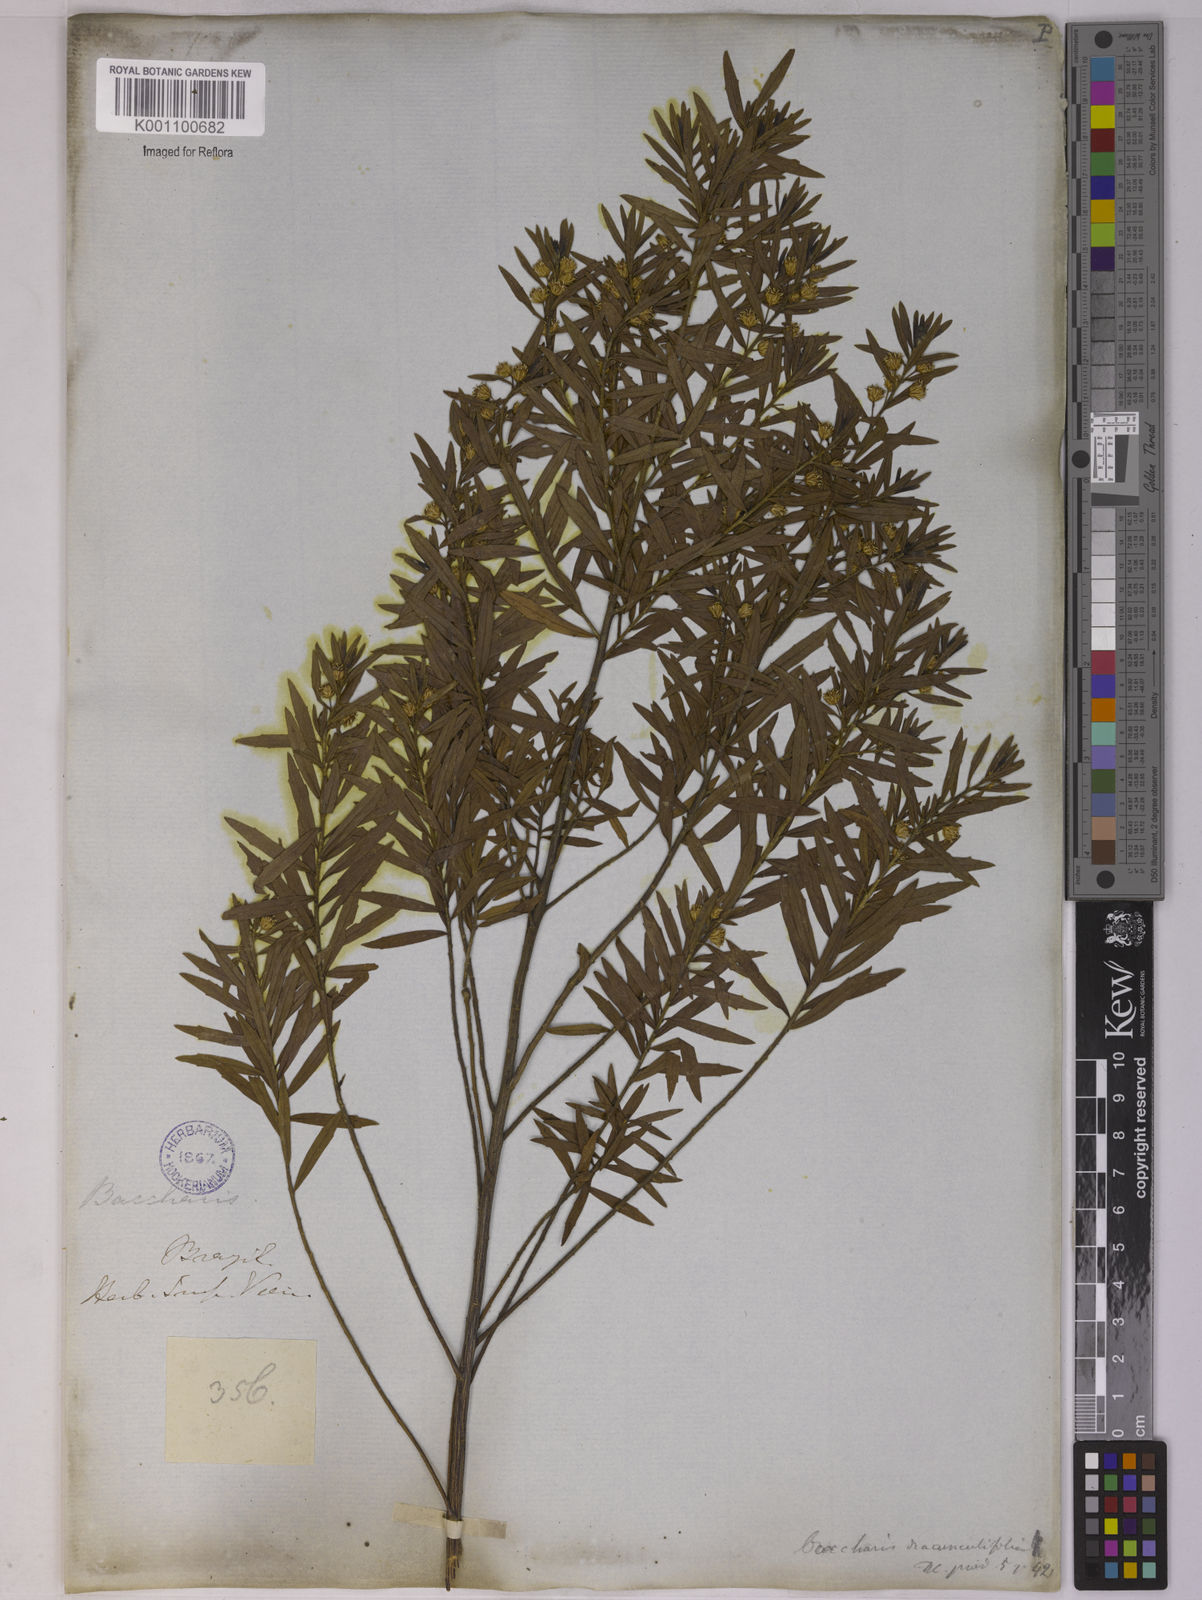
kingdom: Plantae
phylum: Tracheophyta
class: Magnoliopsida
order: Asterales
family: Asteraceae
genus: Baccharis
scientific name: Baccharis dracunculifolia
